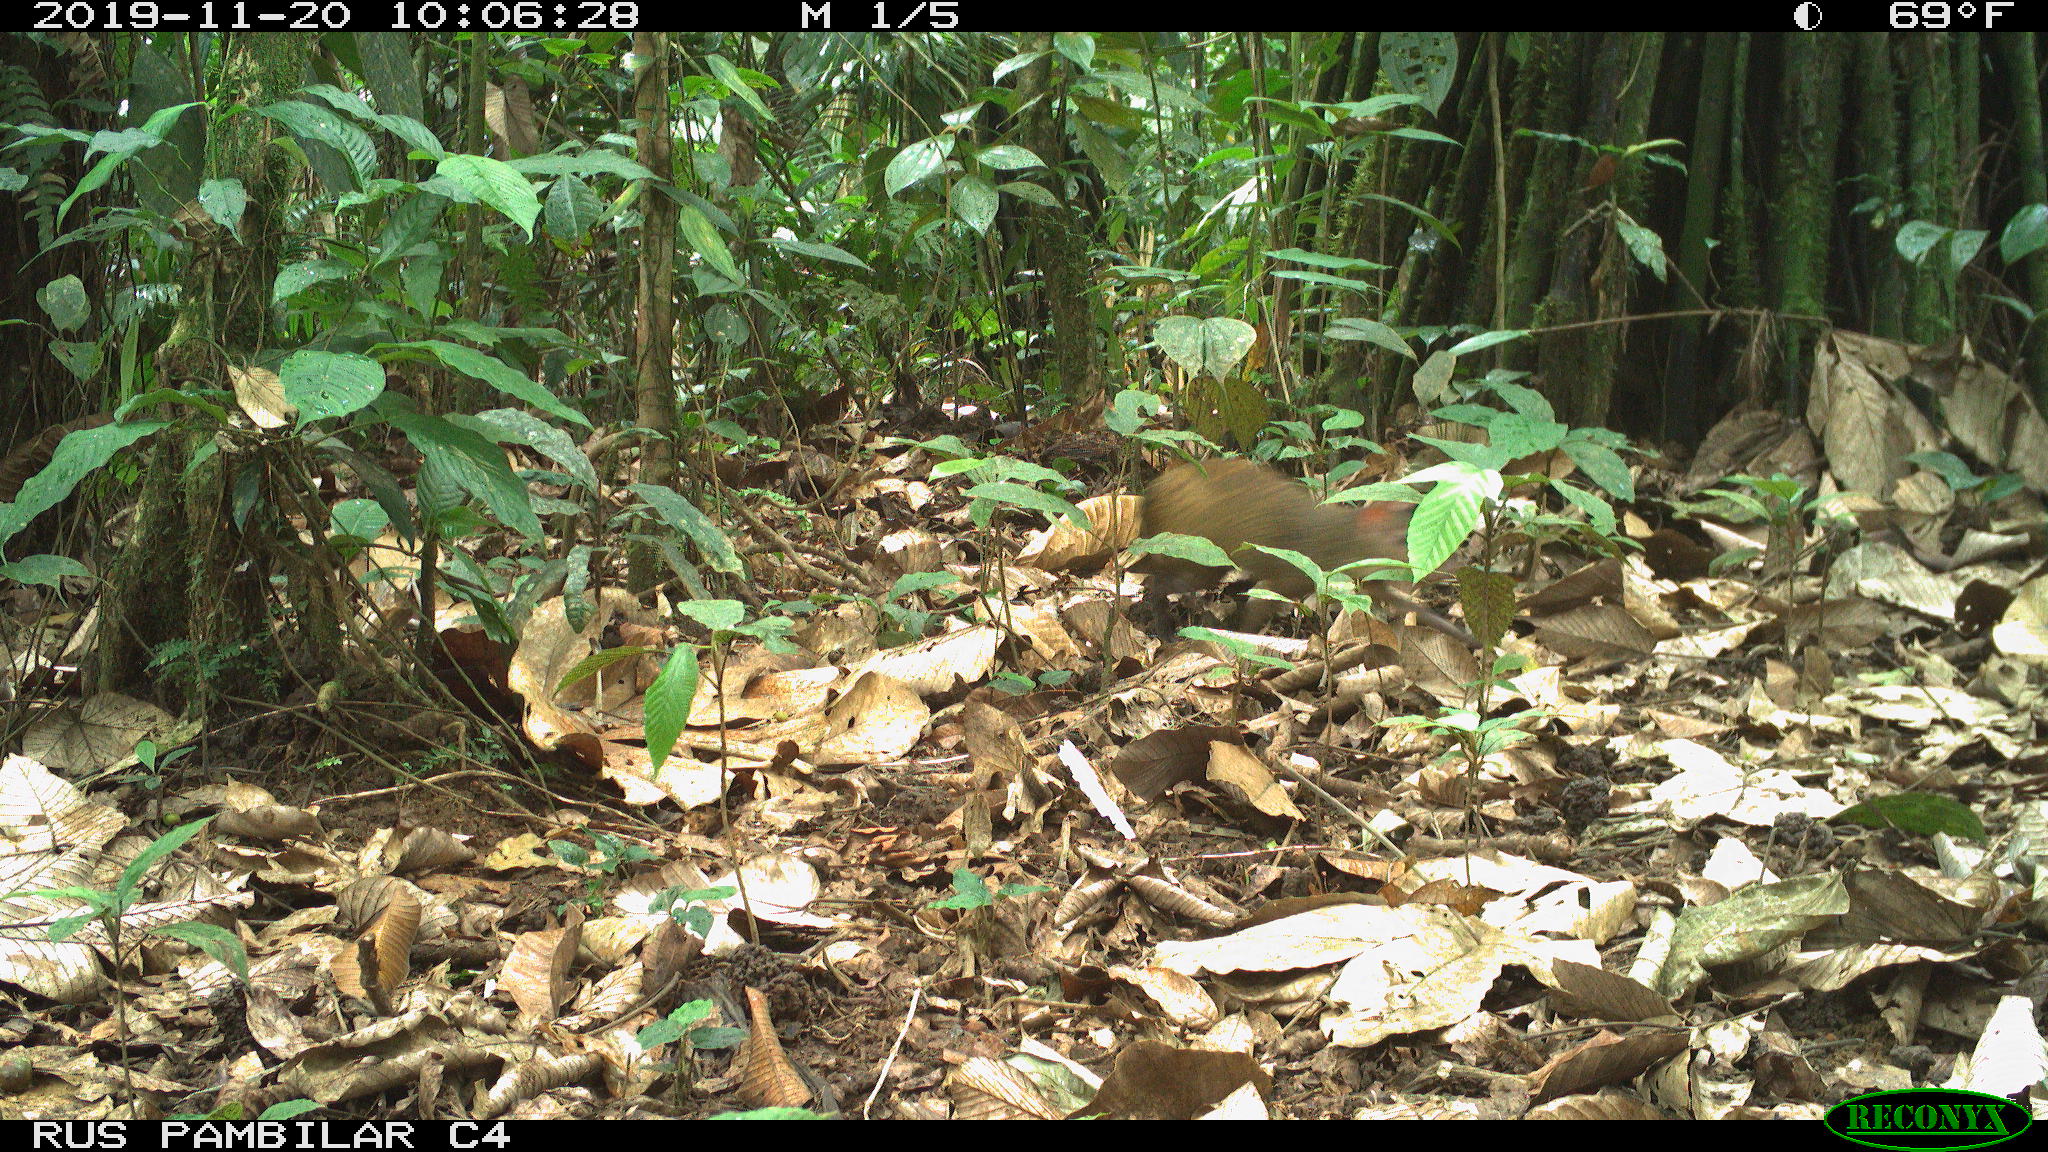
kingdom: Animalia
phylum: Chordata
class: Mammalia
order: Rodentia
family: Dasyproctidae
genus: Dasyprocta
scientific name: Dasyprocta punctata
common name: Central american agouti
